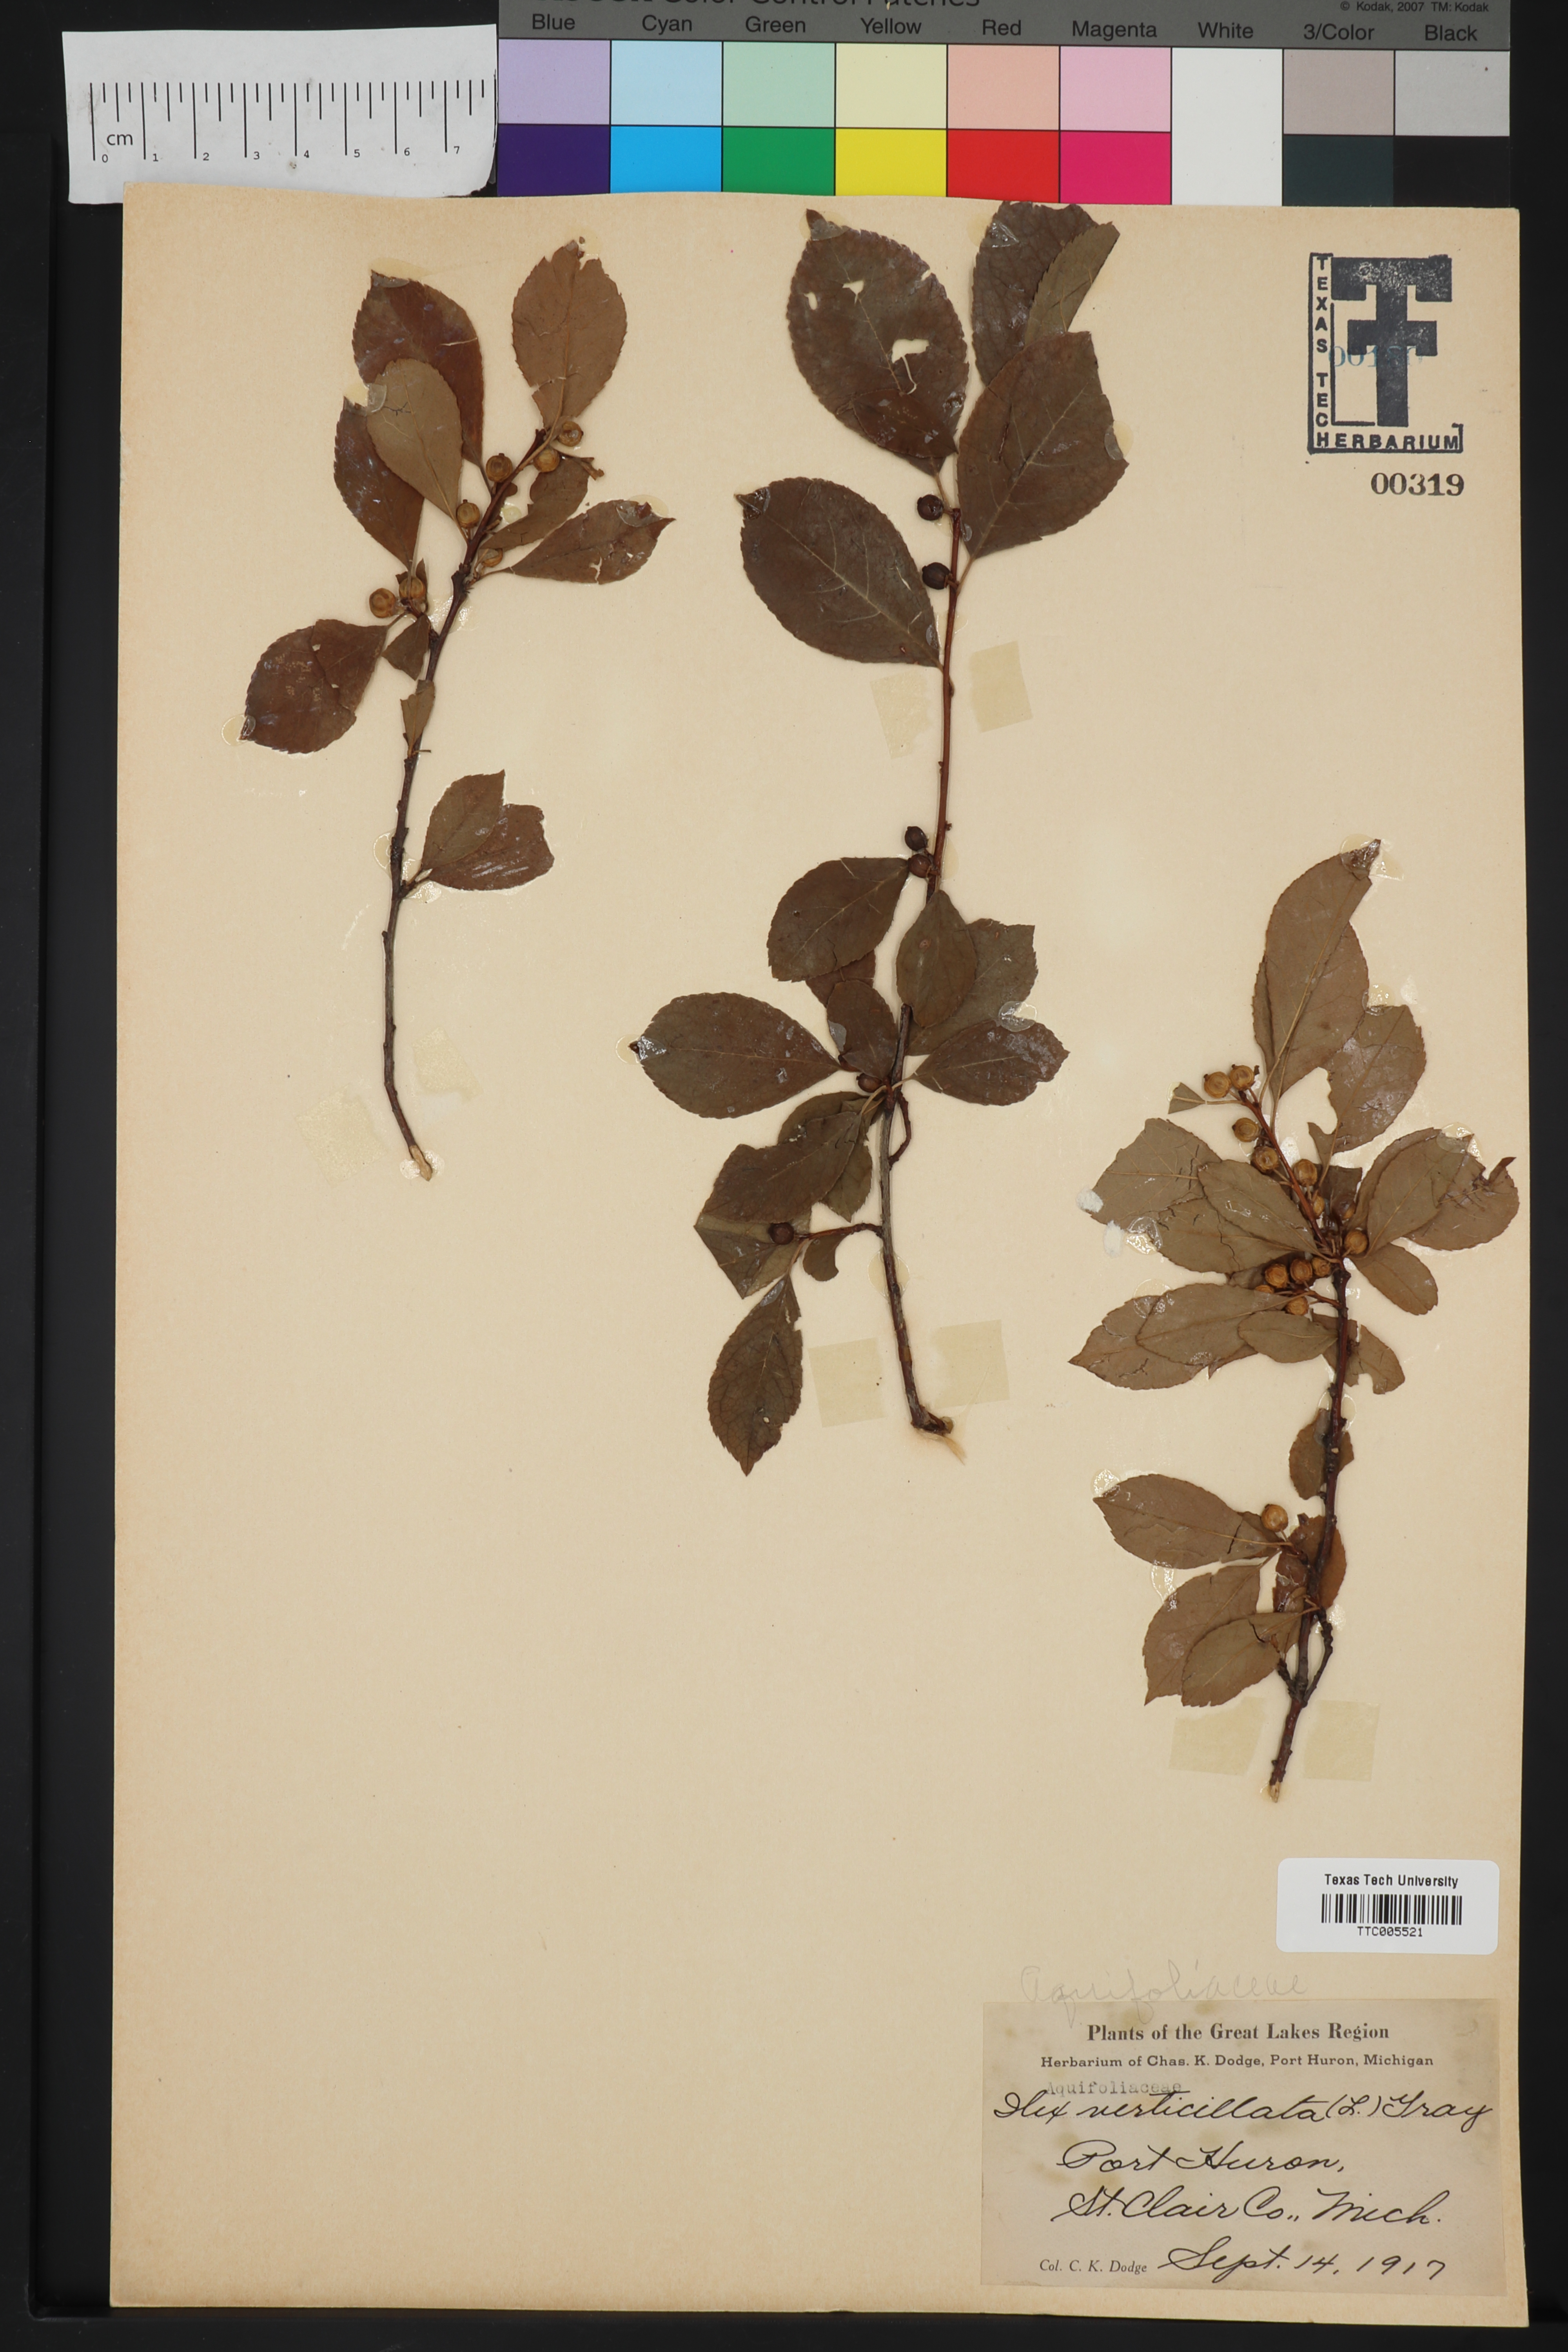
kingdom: Plantae
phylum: Tracheophyta
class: Magnoliopsida
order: Aquifoliales
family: Aquifoliaceae
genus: Ilex
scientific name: Ilex verticillata
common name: Virginia winterberry
